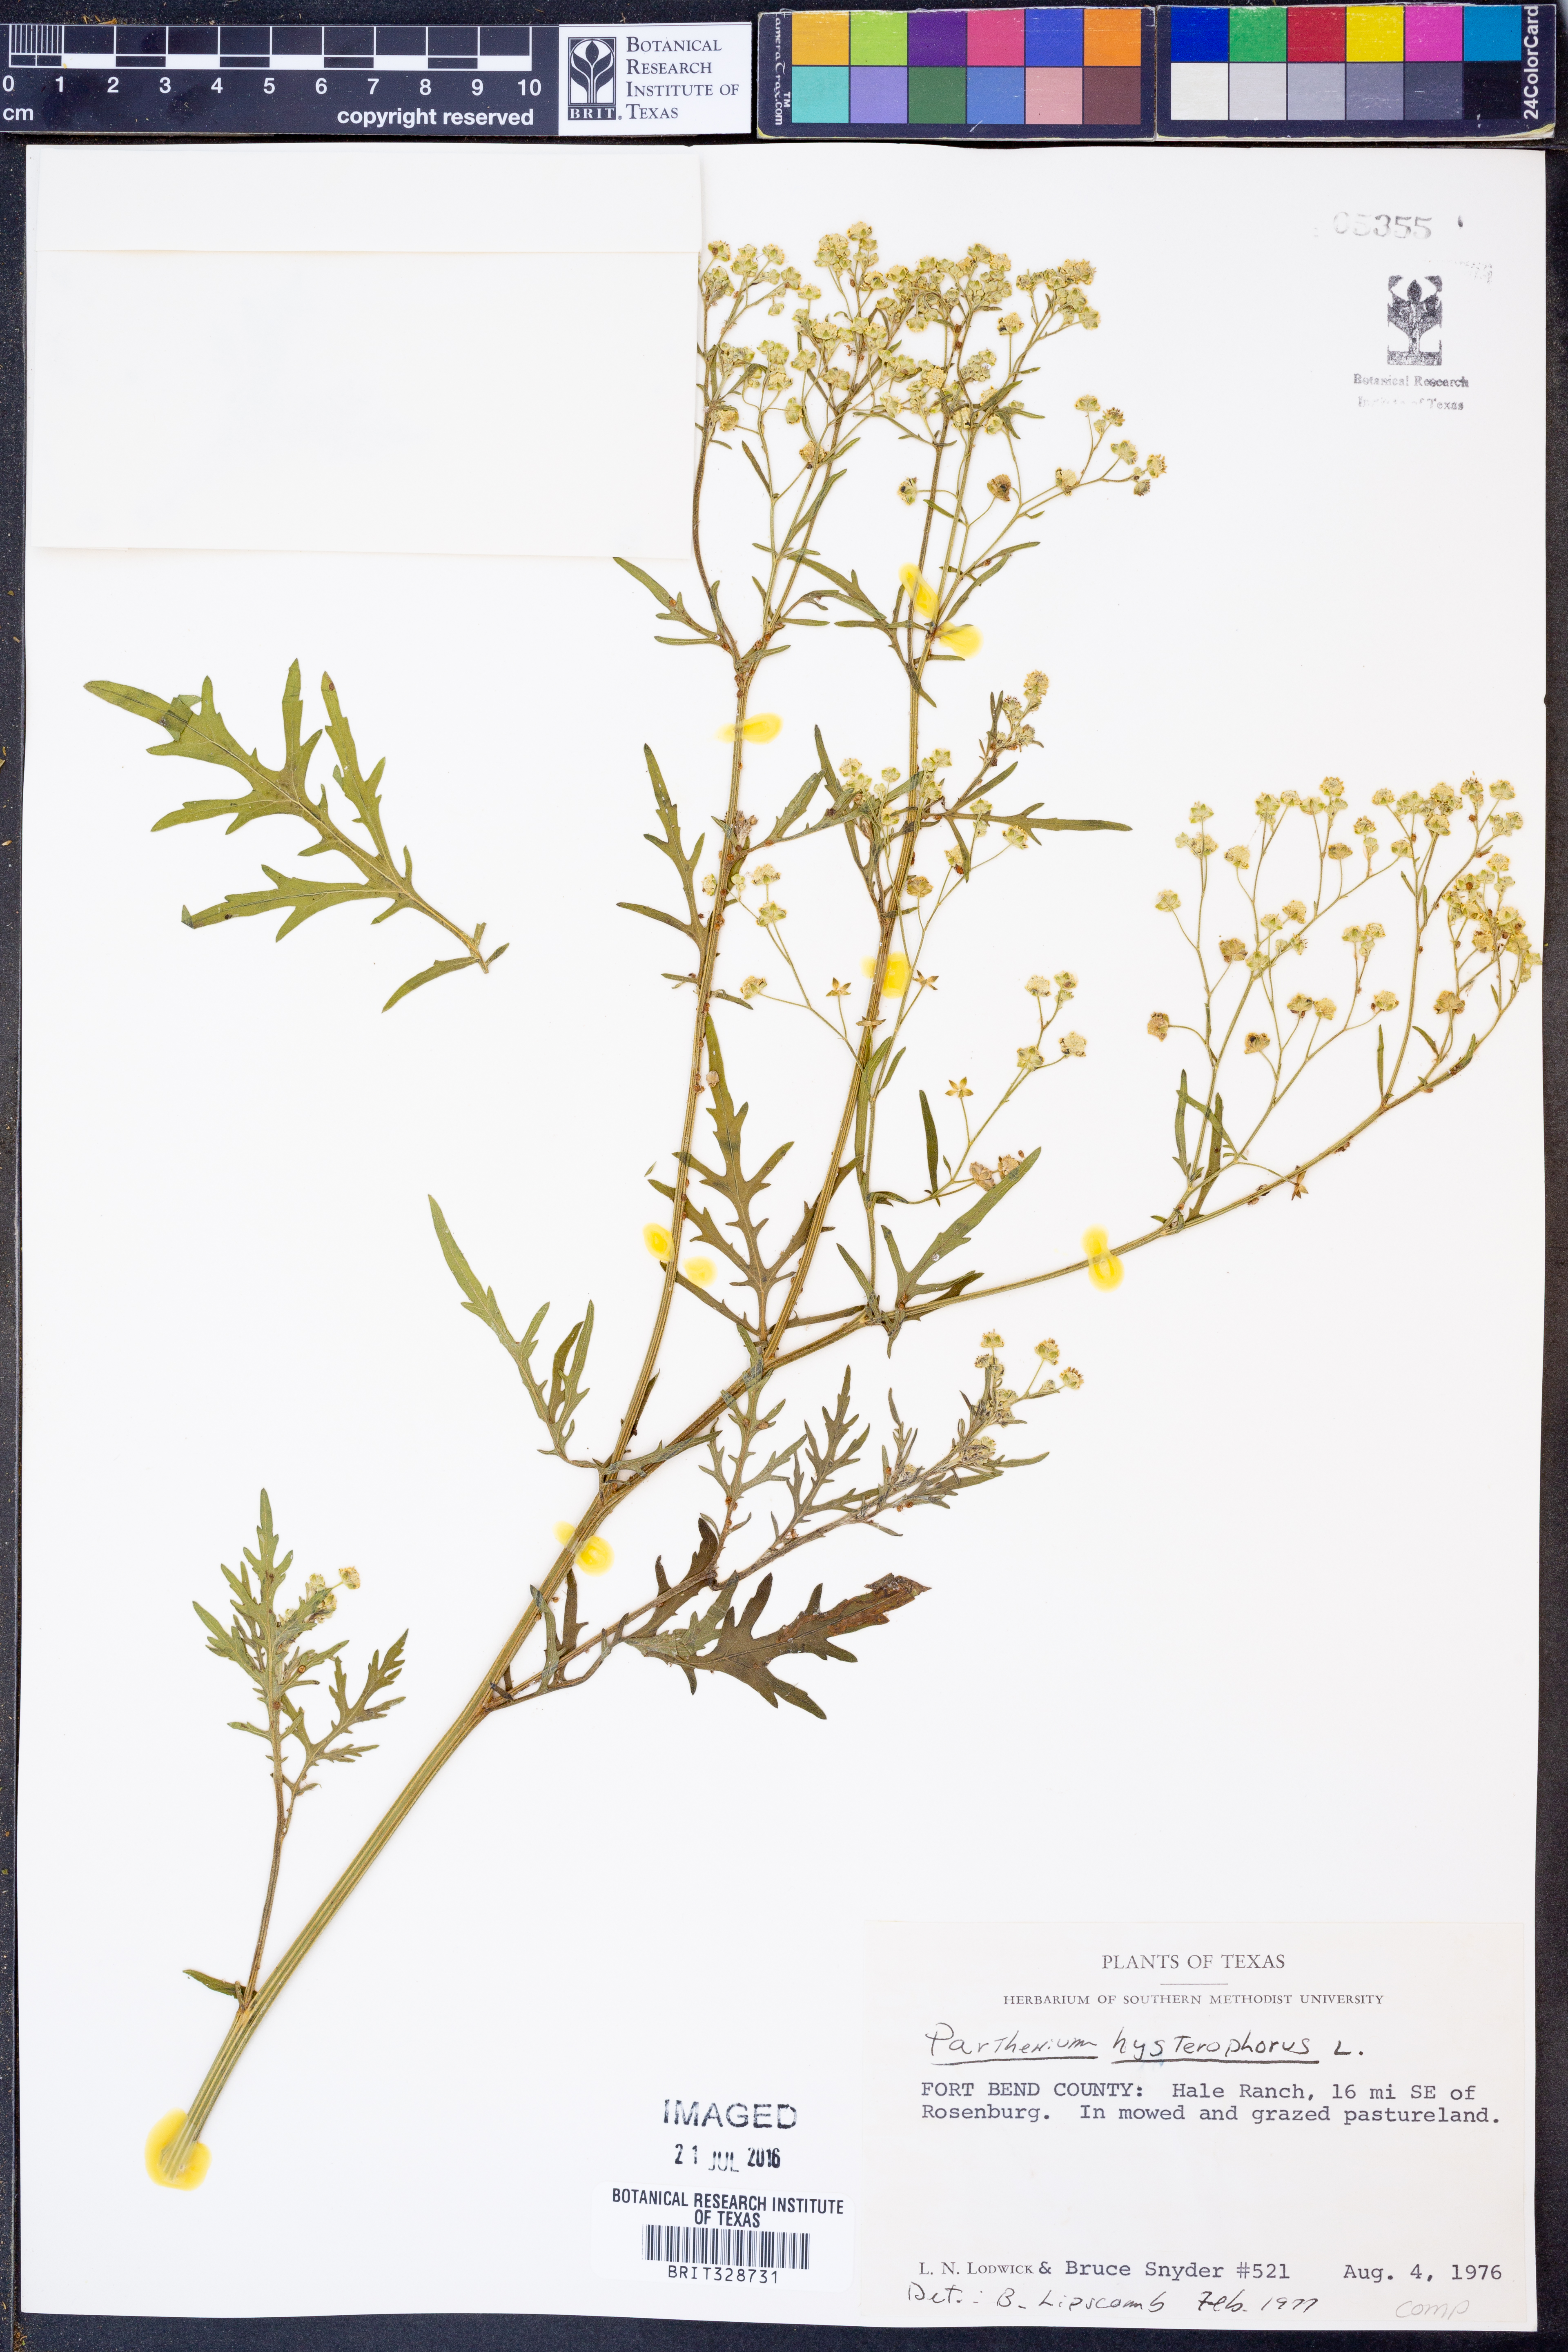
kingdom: Plantae
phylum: Tracheophyta
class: Magnoliopsida
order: Asterales
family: Asteraceae
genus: Parthenium
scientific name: Parthenium hysterophorus
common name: Santa maria feverfew
